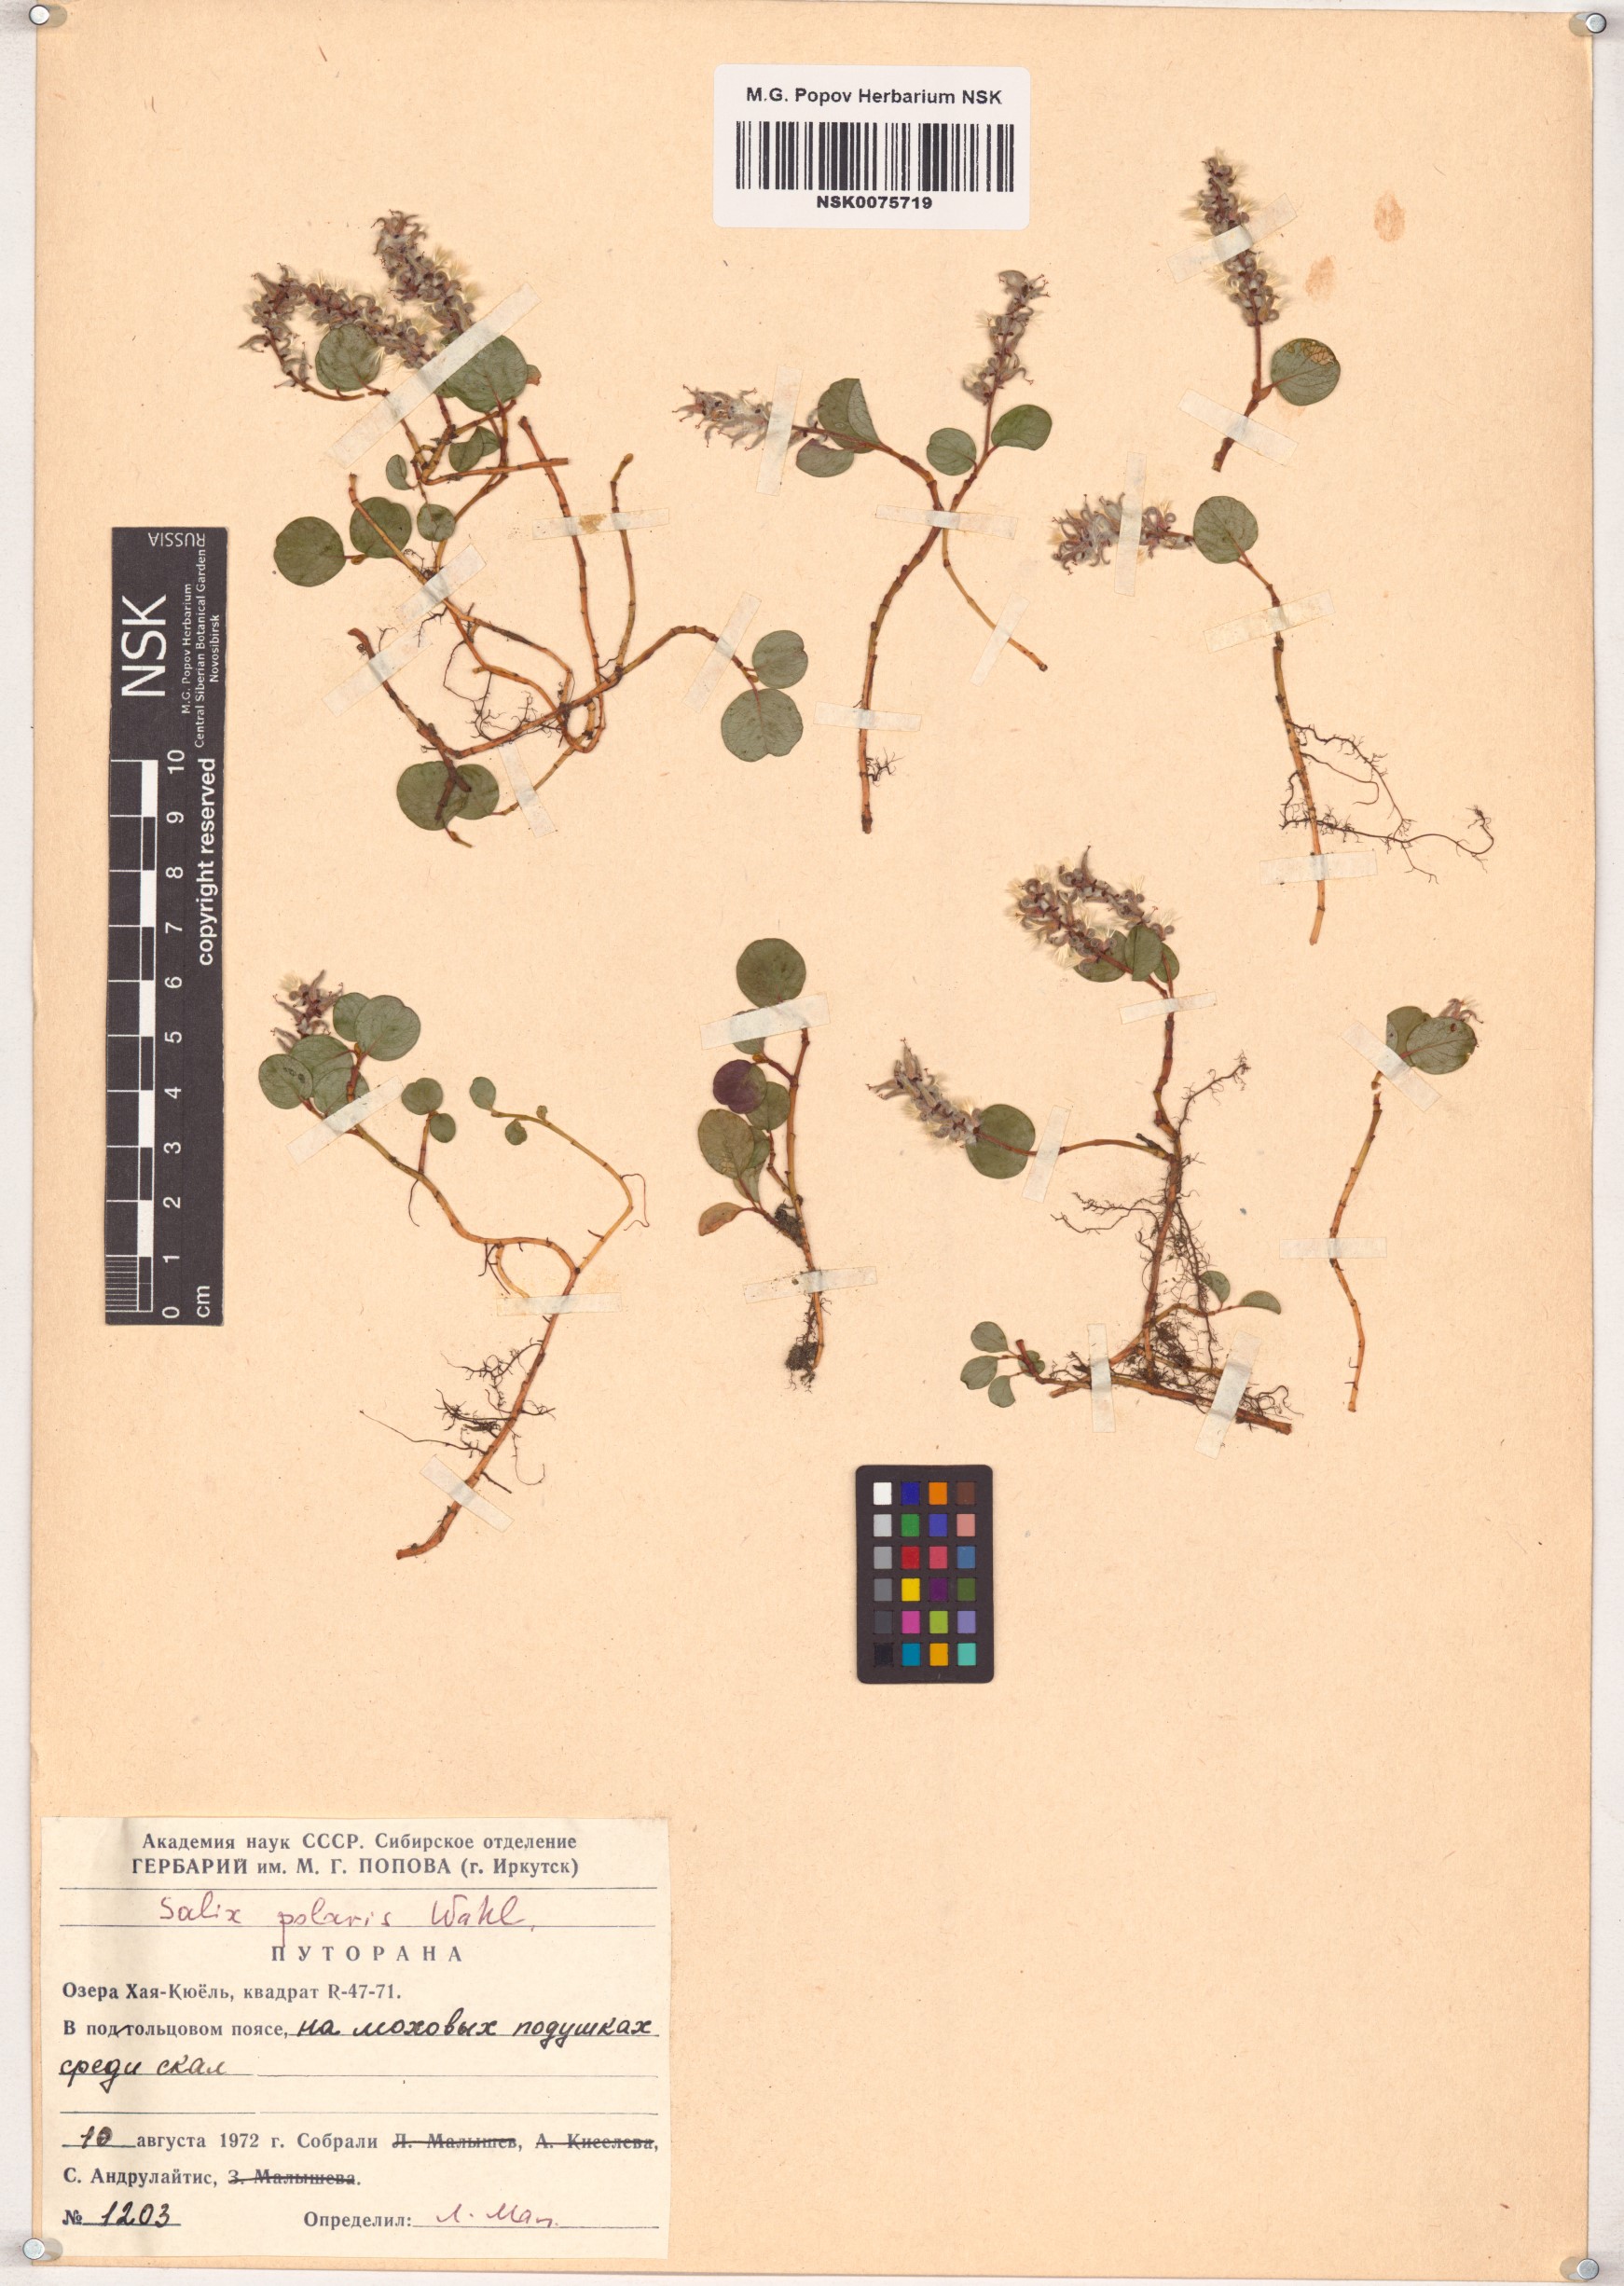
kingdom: Plantae
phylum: Tracheophyta
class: Magnoliopsida
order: Malpighiales
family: Salicaceae
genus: Salix
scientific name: Salix polaris
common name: Polar willow
